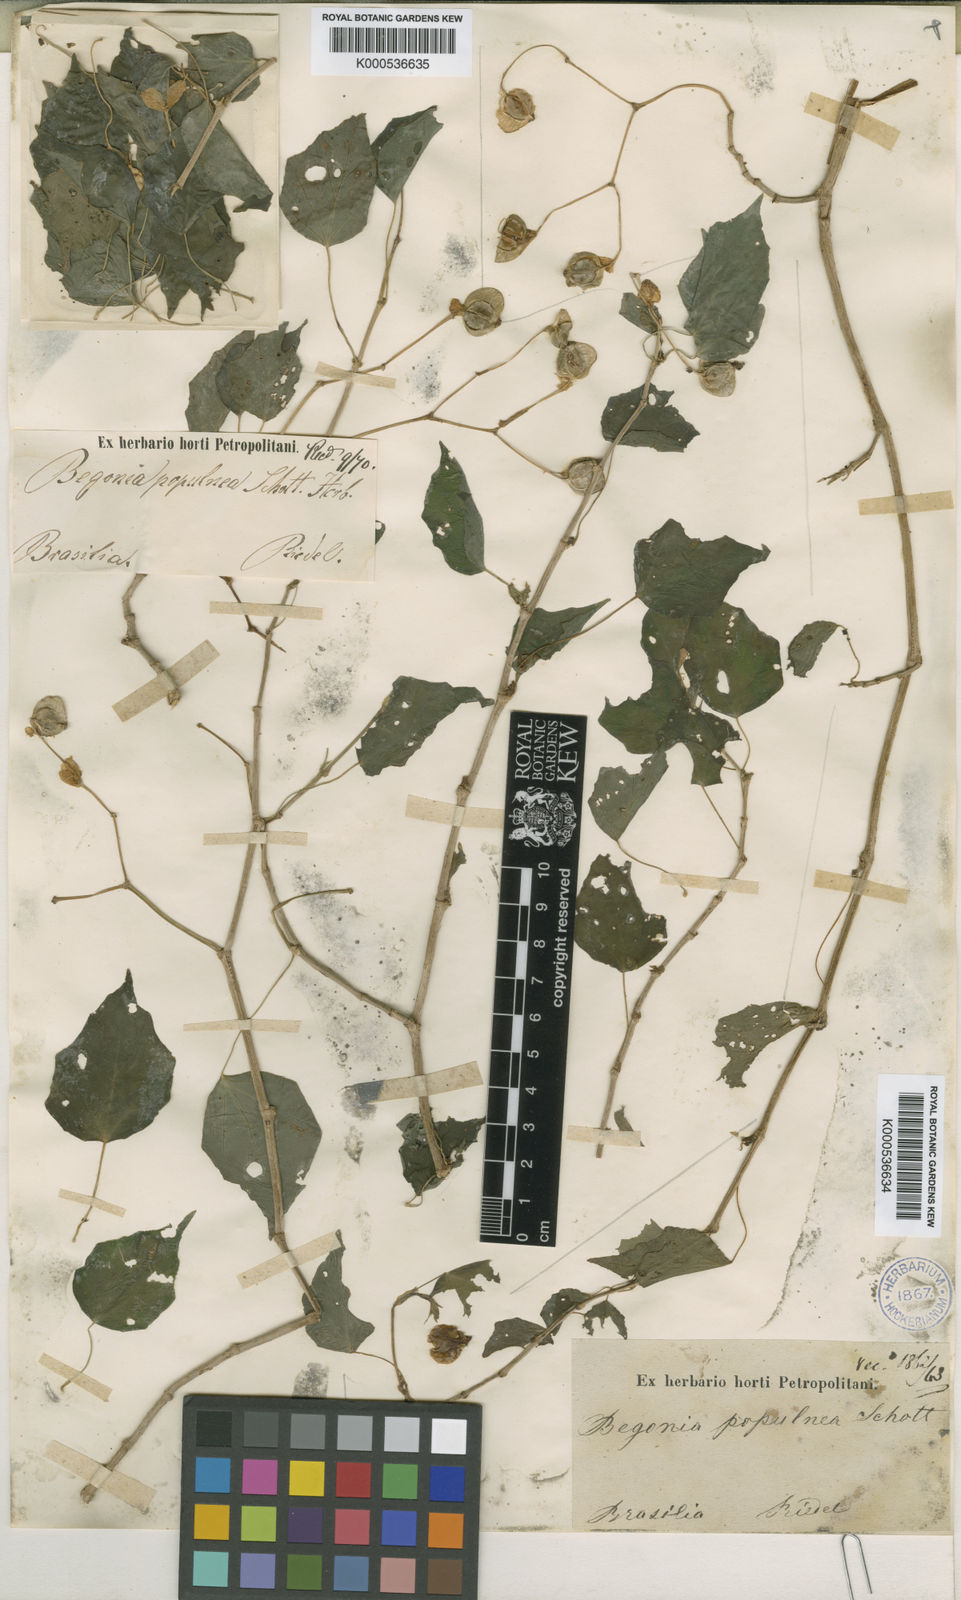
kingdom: Plantae
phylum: Tracheophyta
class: Magnoliopsida
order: Cucurbitales
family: Begoniaceae
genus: Begonia
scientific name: Begonia
